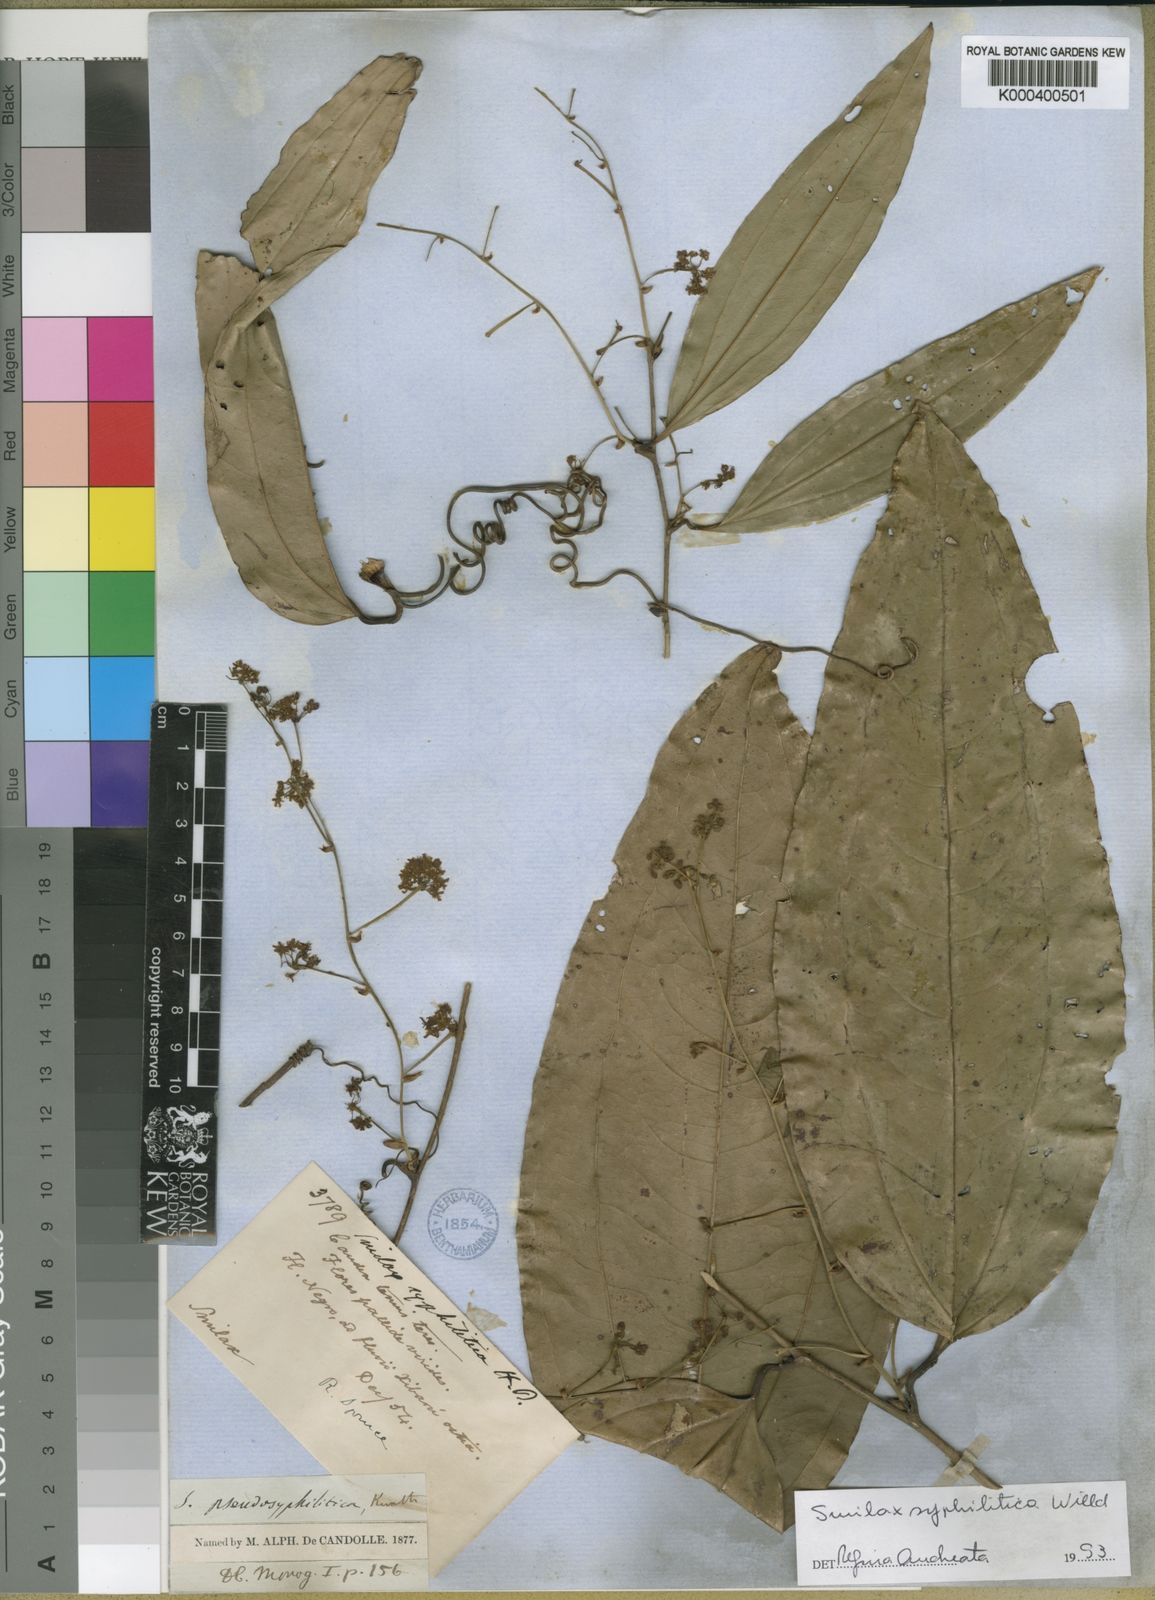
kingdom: Plantae
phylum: Tracheophyta
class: Liliopsida
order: Liliales
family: Smilacaceae
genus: Smilax
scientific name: Smilax siphilitica
